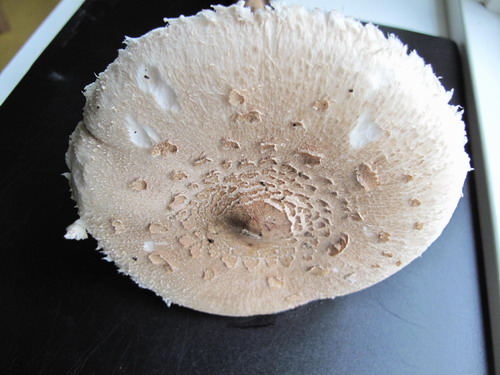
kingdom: Fungi
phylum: Basidiomycota
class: Agaricomycetes
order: Agaricales
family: Agaricaceae
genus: Macrolepiota
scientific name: Macrolepiota procera
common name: stor kæmpeparasolhat
